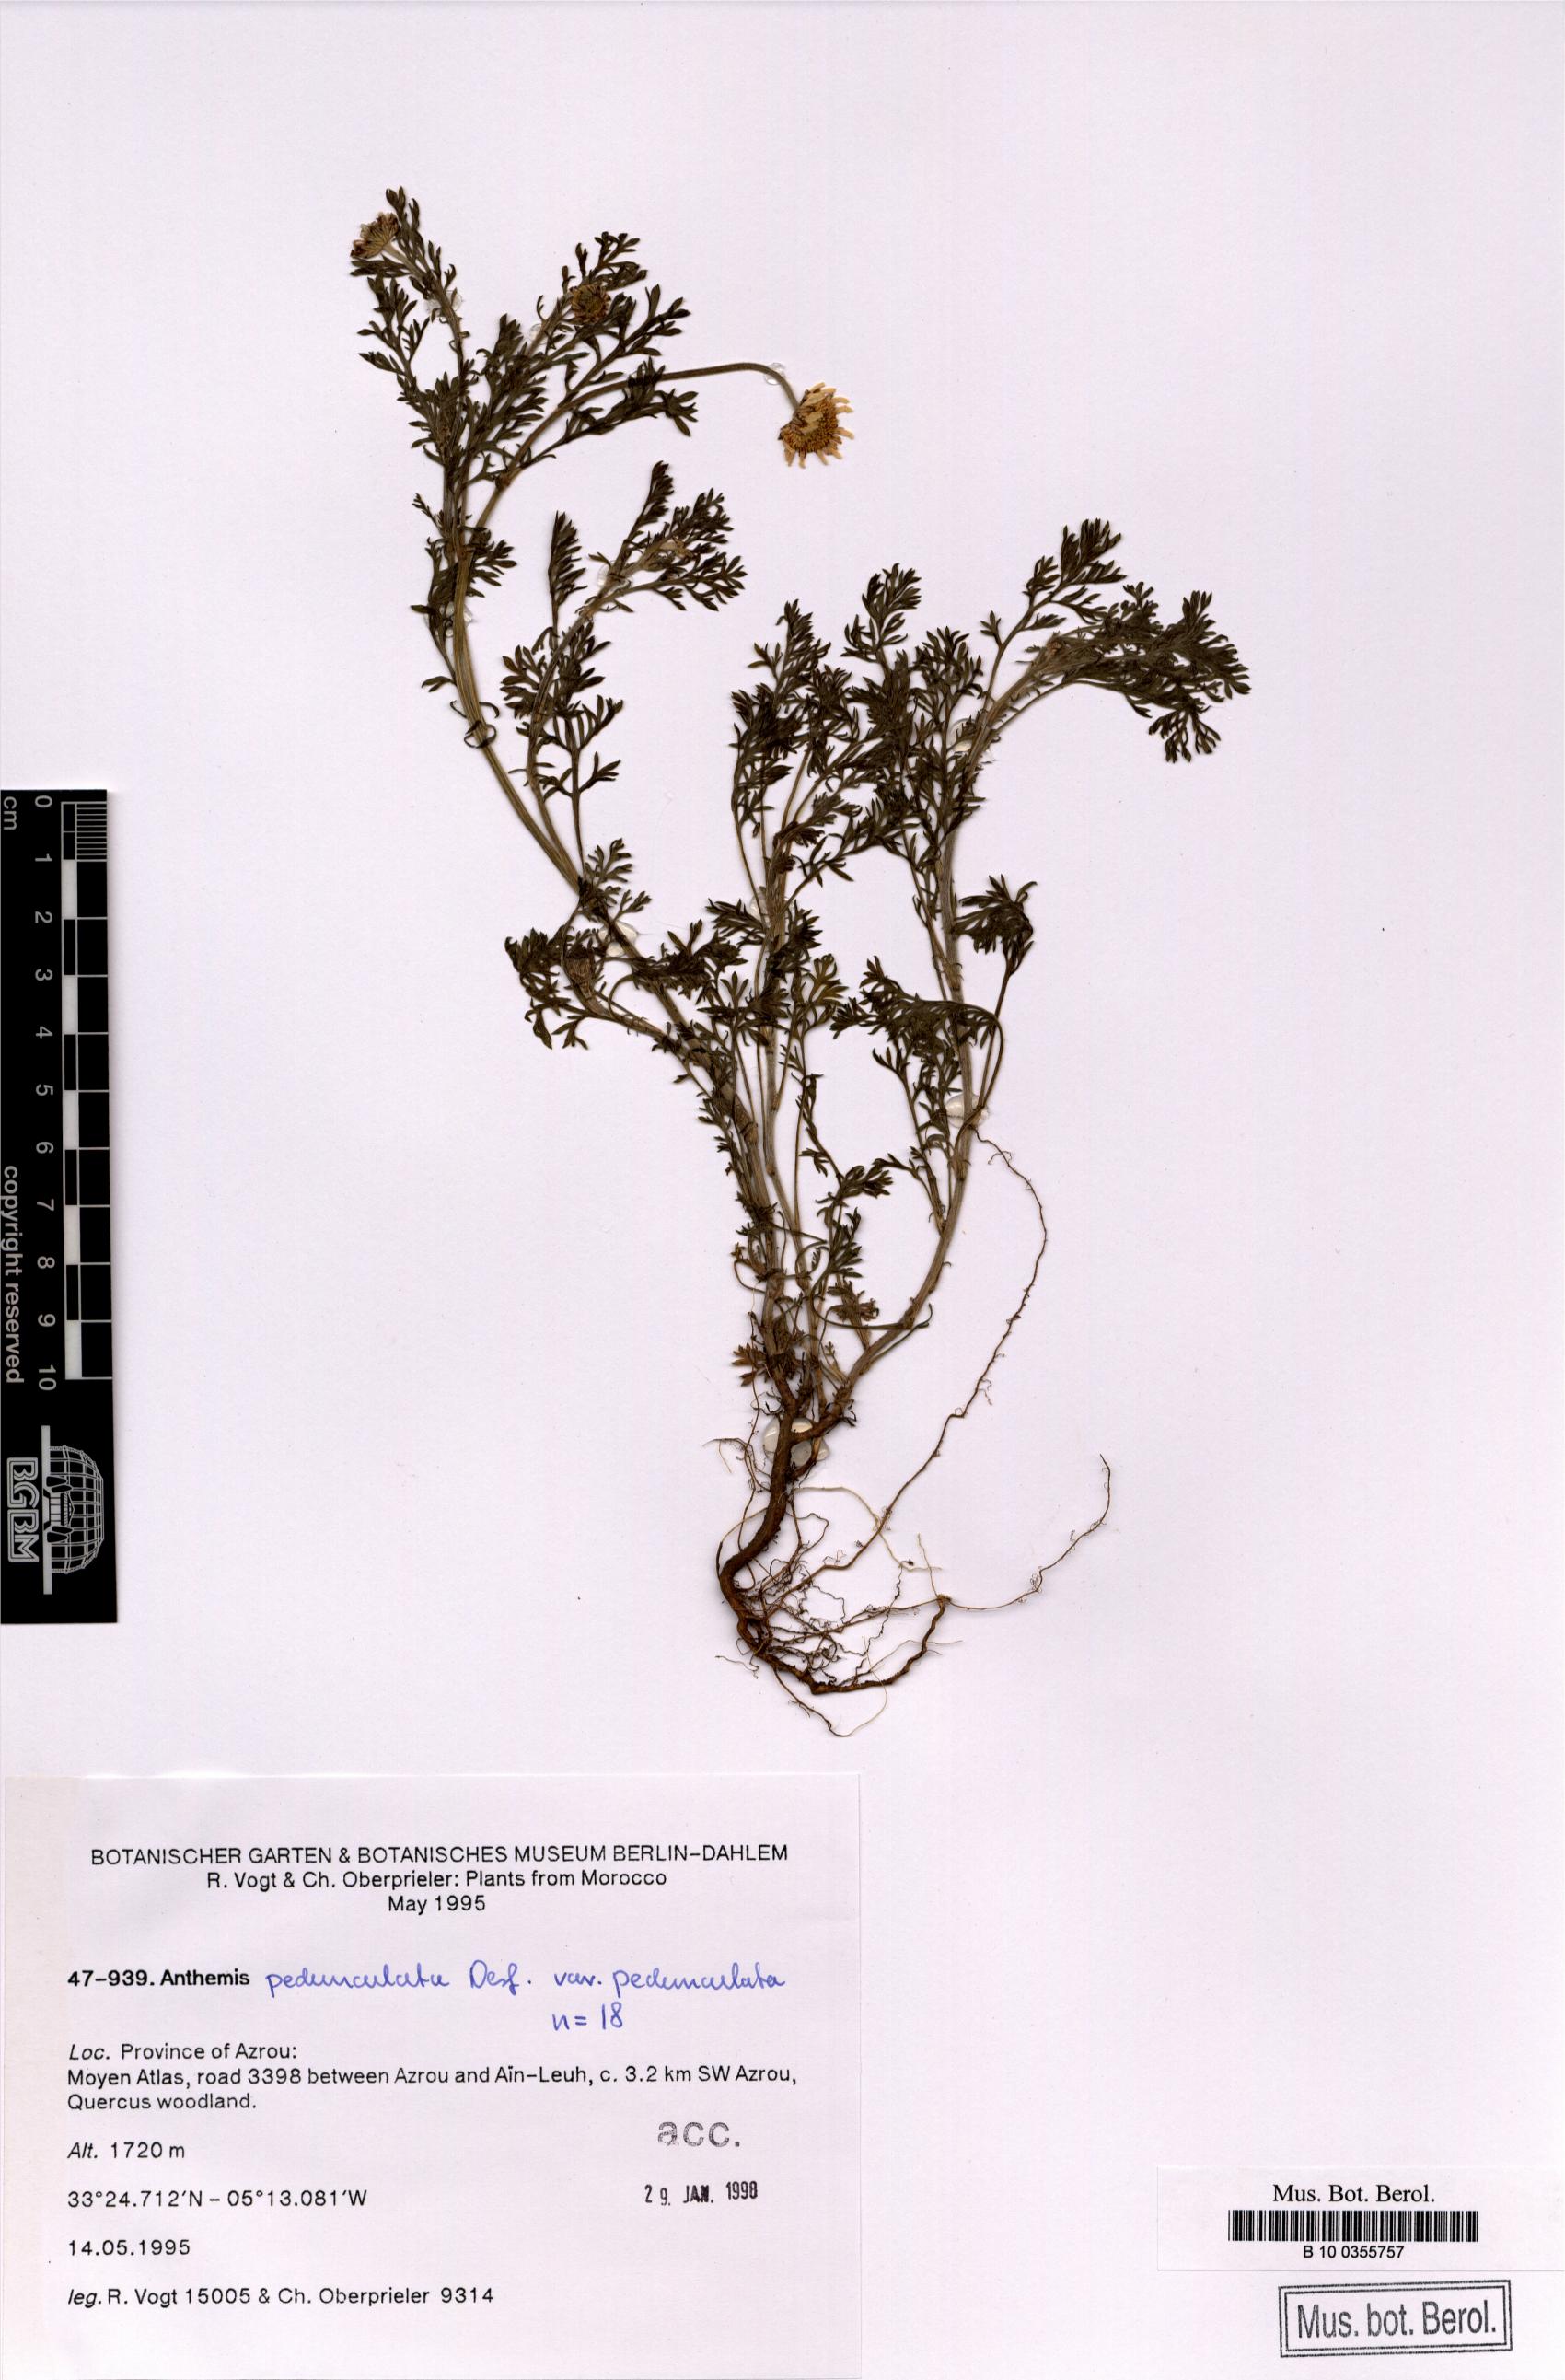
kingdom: Plantae
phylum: Tracheophyta
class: Magnoliopsida
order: Asterales
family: Asteraceae
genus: Anthemis
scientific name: Anthemis pedunculata
